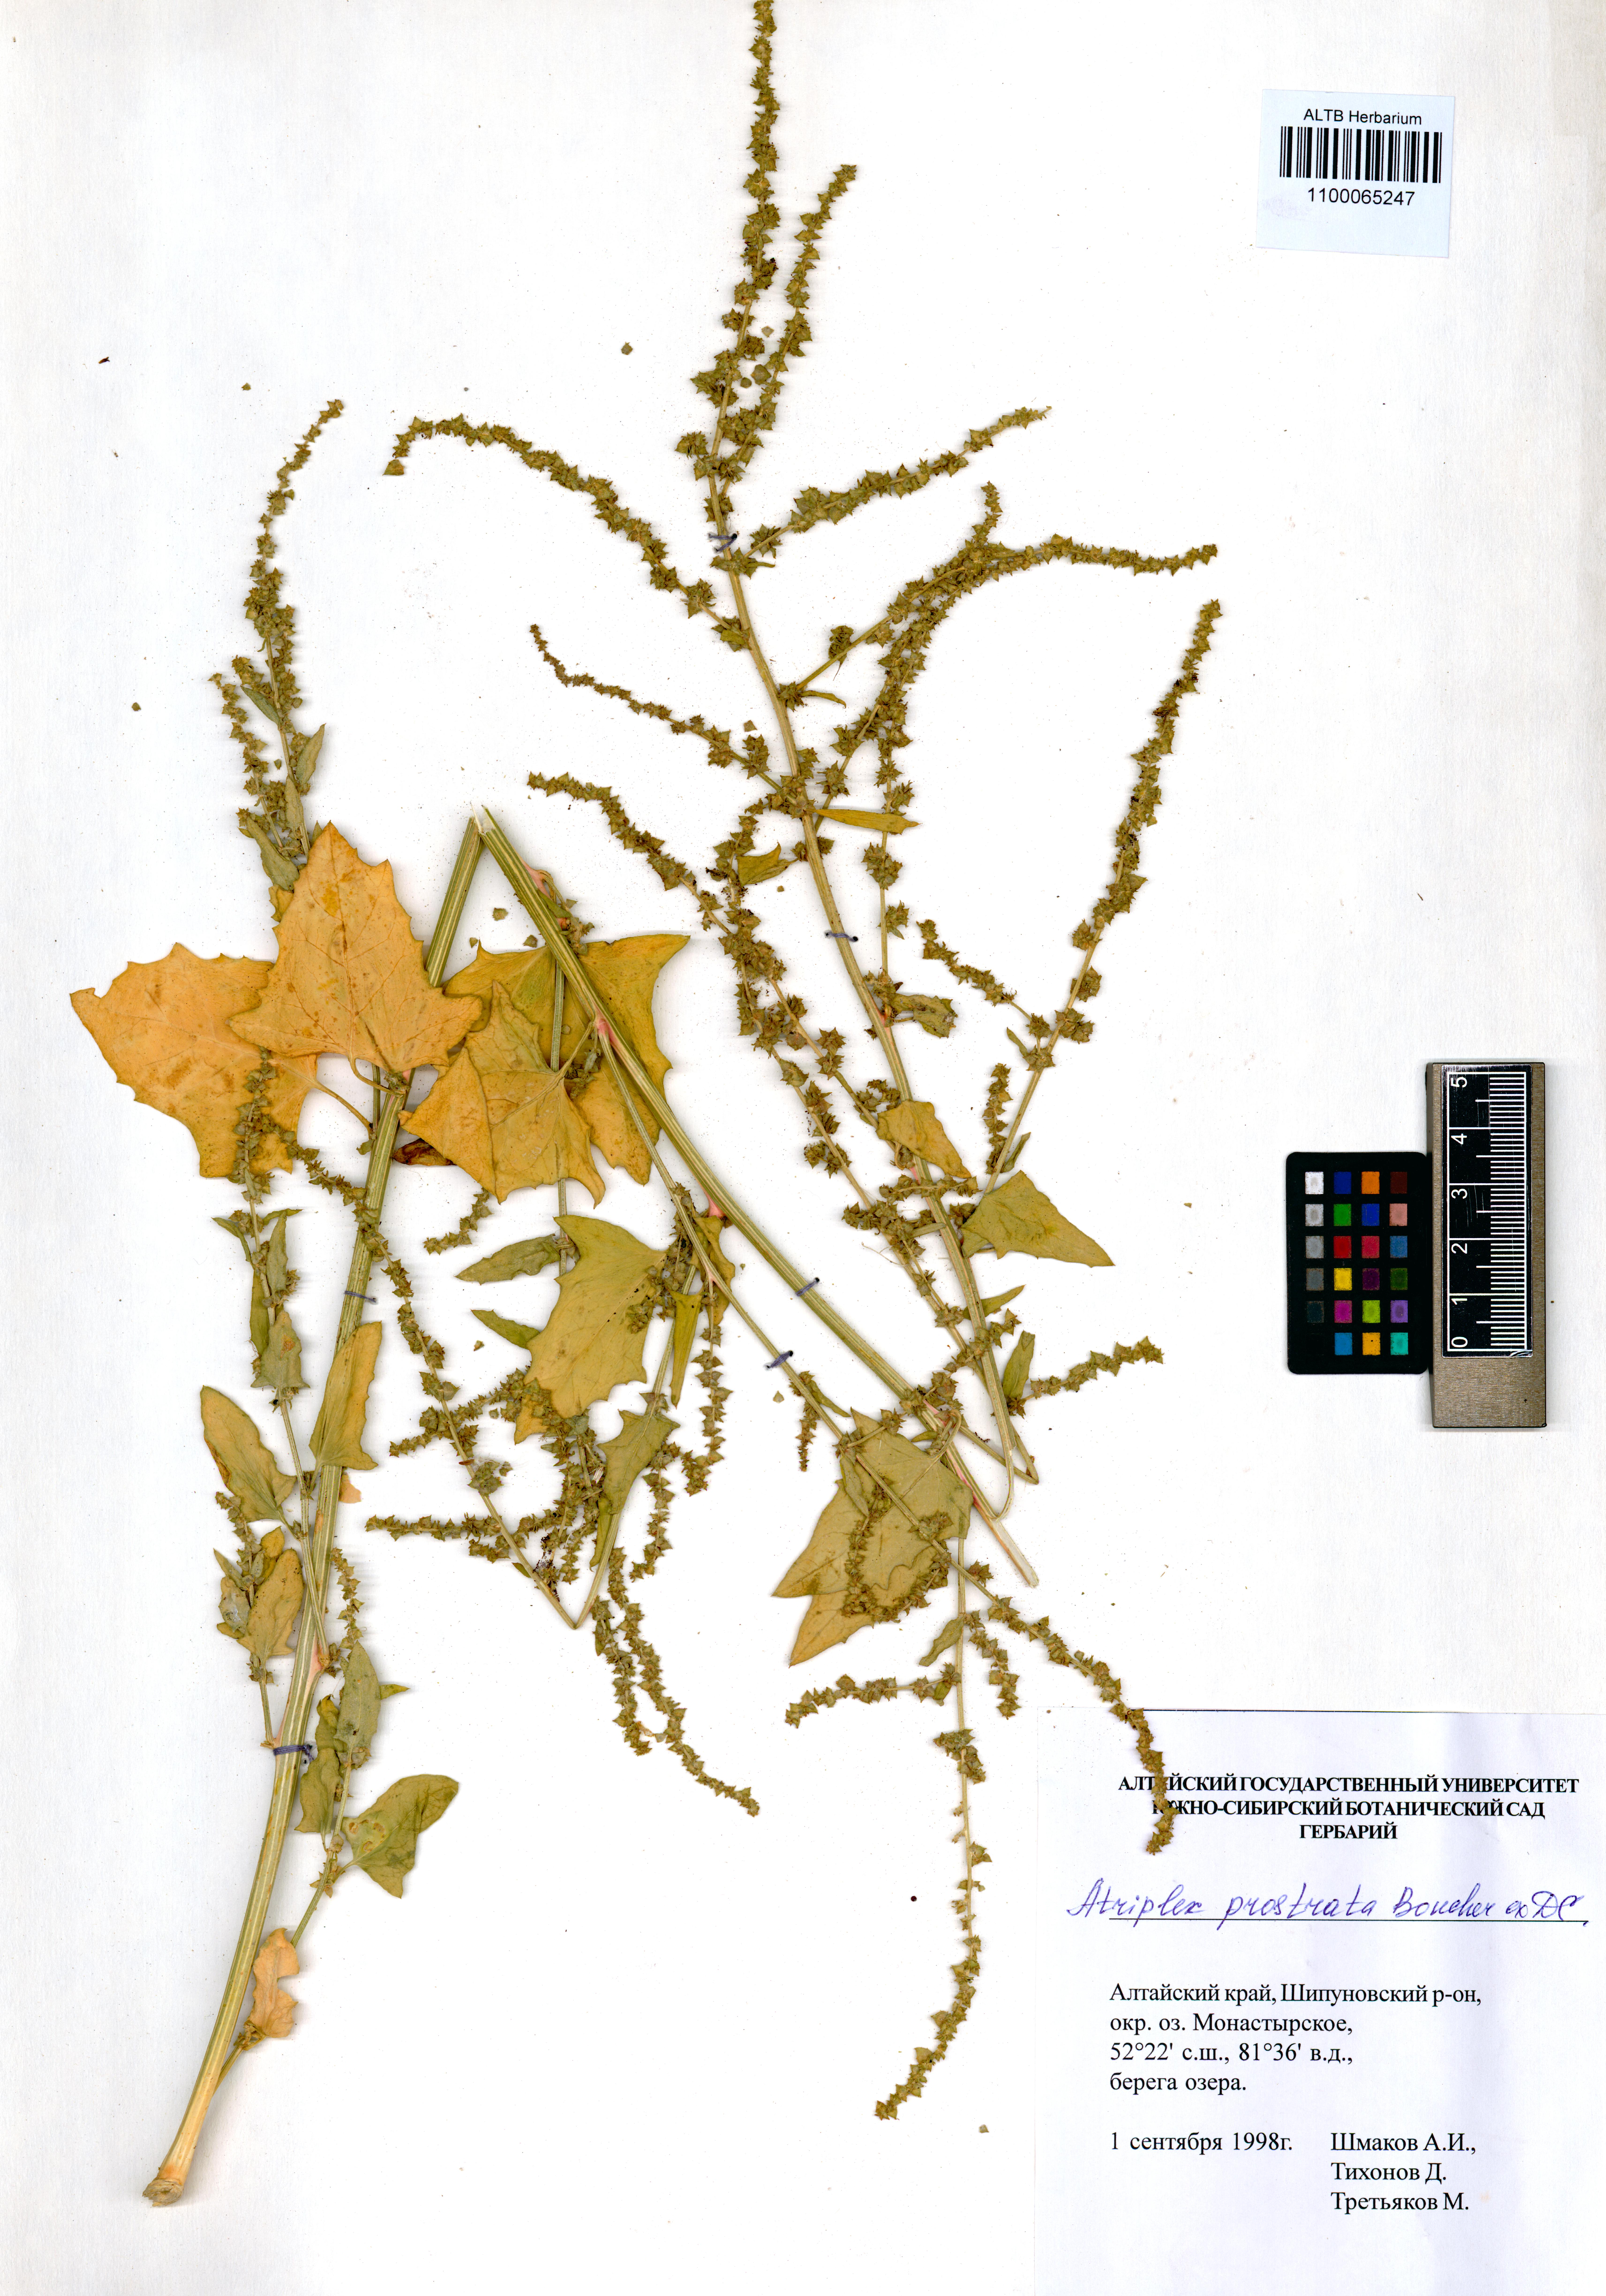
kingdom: Plantae
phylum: Tracheophyta
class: Magnoliopsida
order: Caryophyllales
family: Amaranthaceae
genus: Atriplex
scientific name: Atriplex prostrata
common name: Spear-leaved orache
